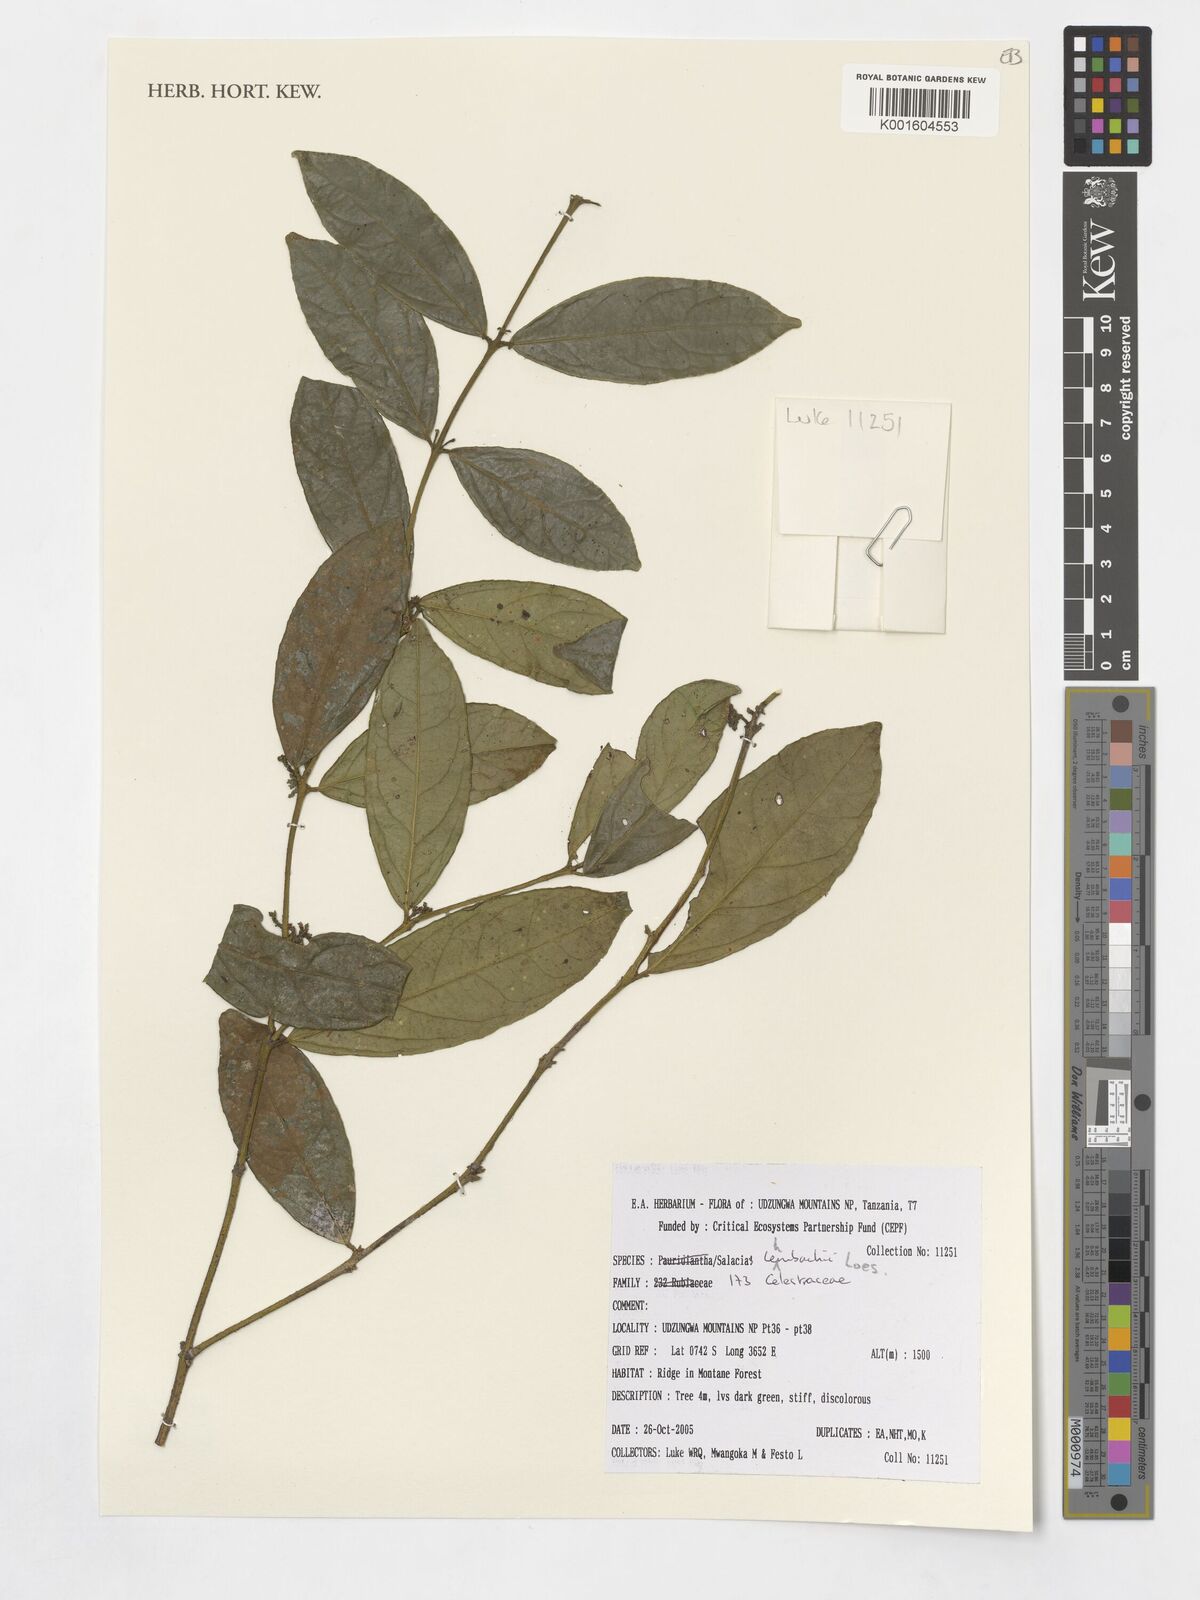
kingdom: Plantae
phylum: Tracheophyta
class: Magnoliopsida
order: Celastrales
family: Celastraceae
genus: Salacia
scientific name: Salacia lehmbachii
